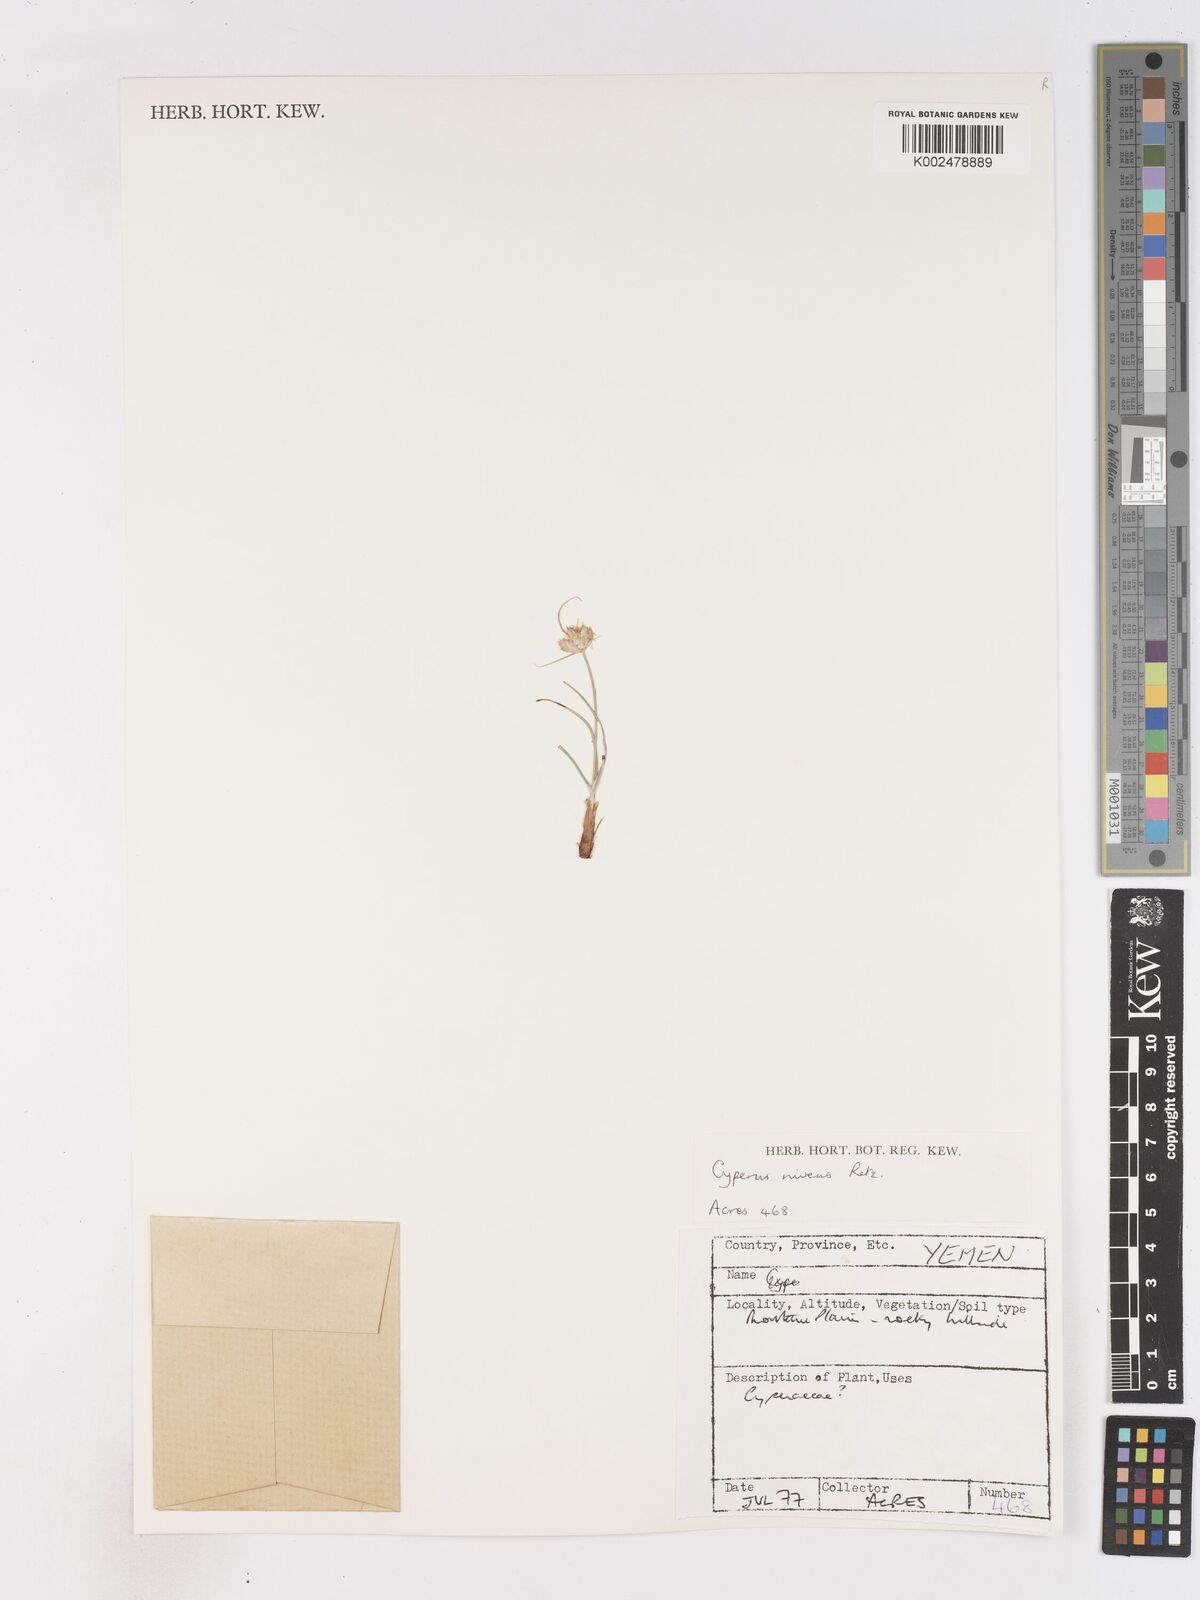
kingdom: Plantae
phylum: Tracheophyta
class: Liliopsida
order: Poales
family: Cyperaceae
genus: Cyperus
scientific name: Cyperus niveus
